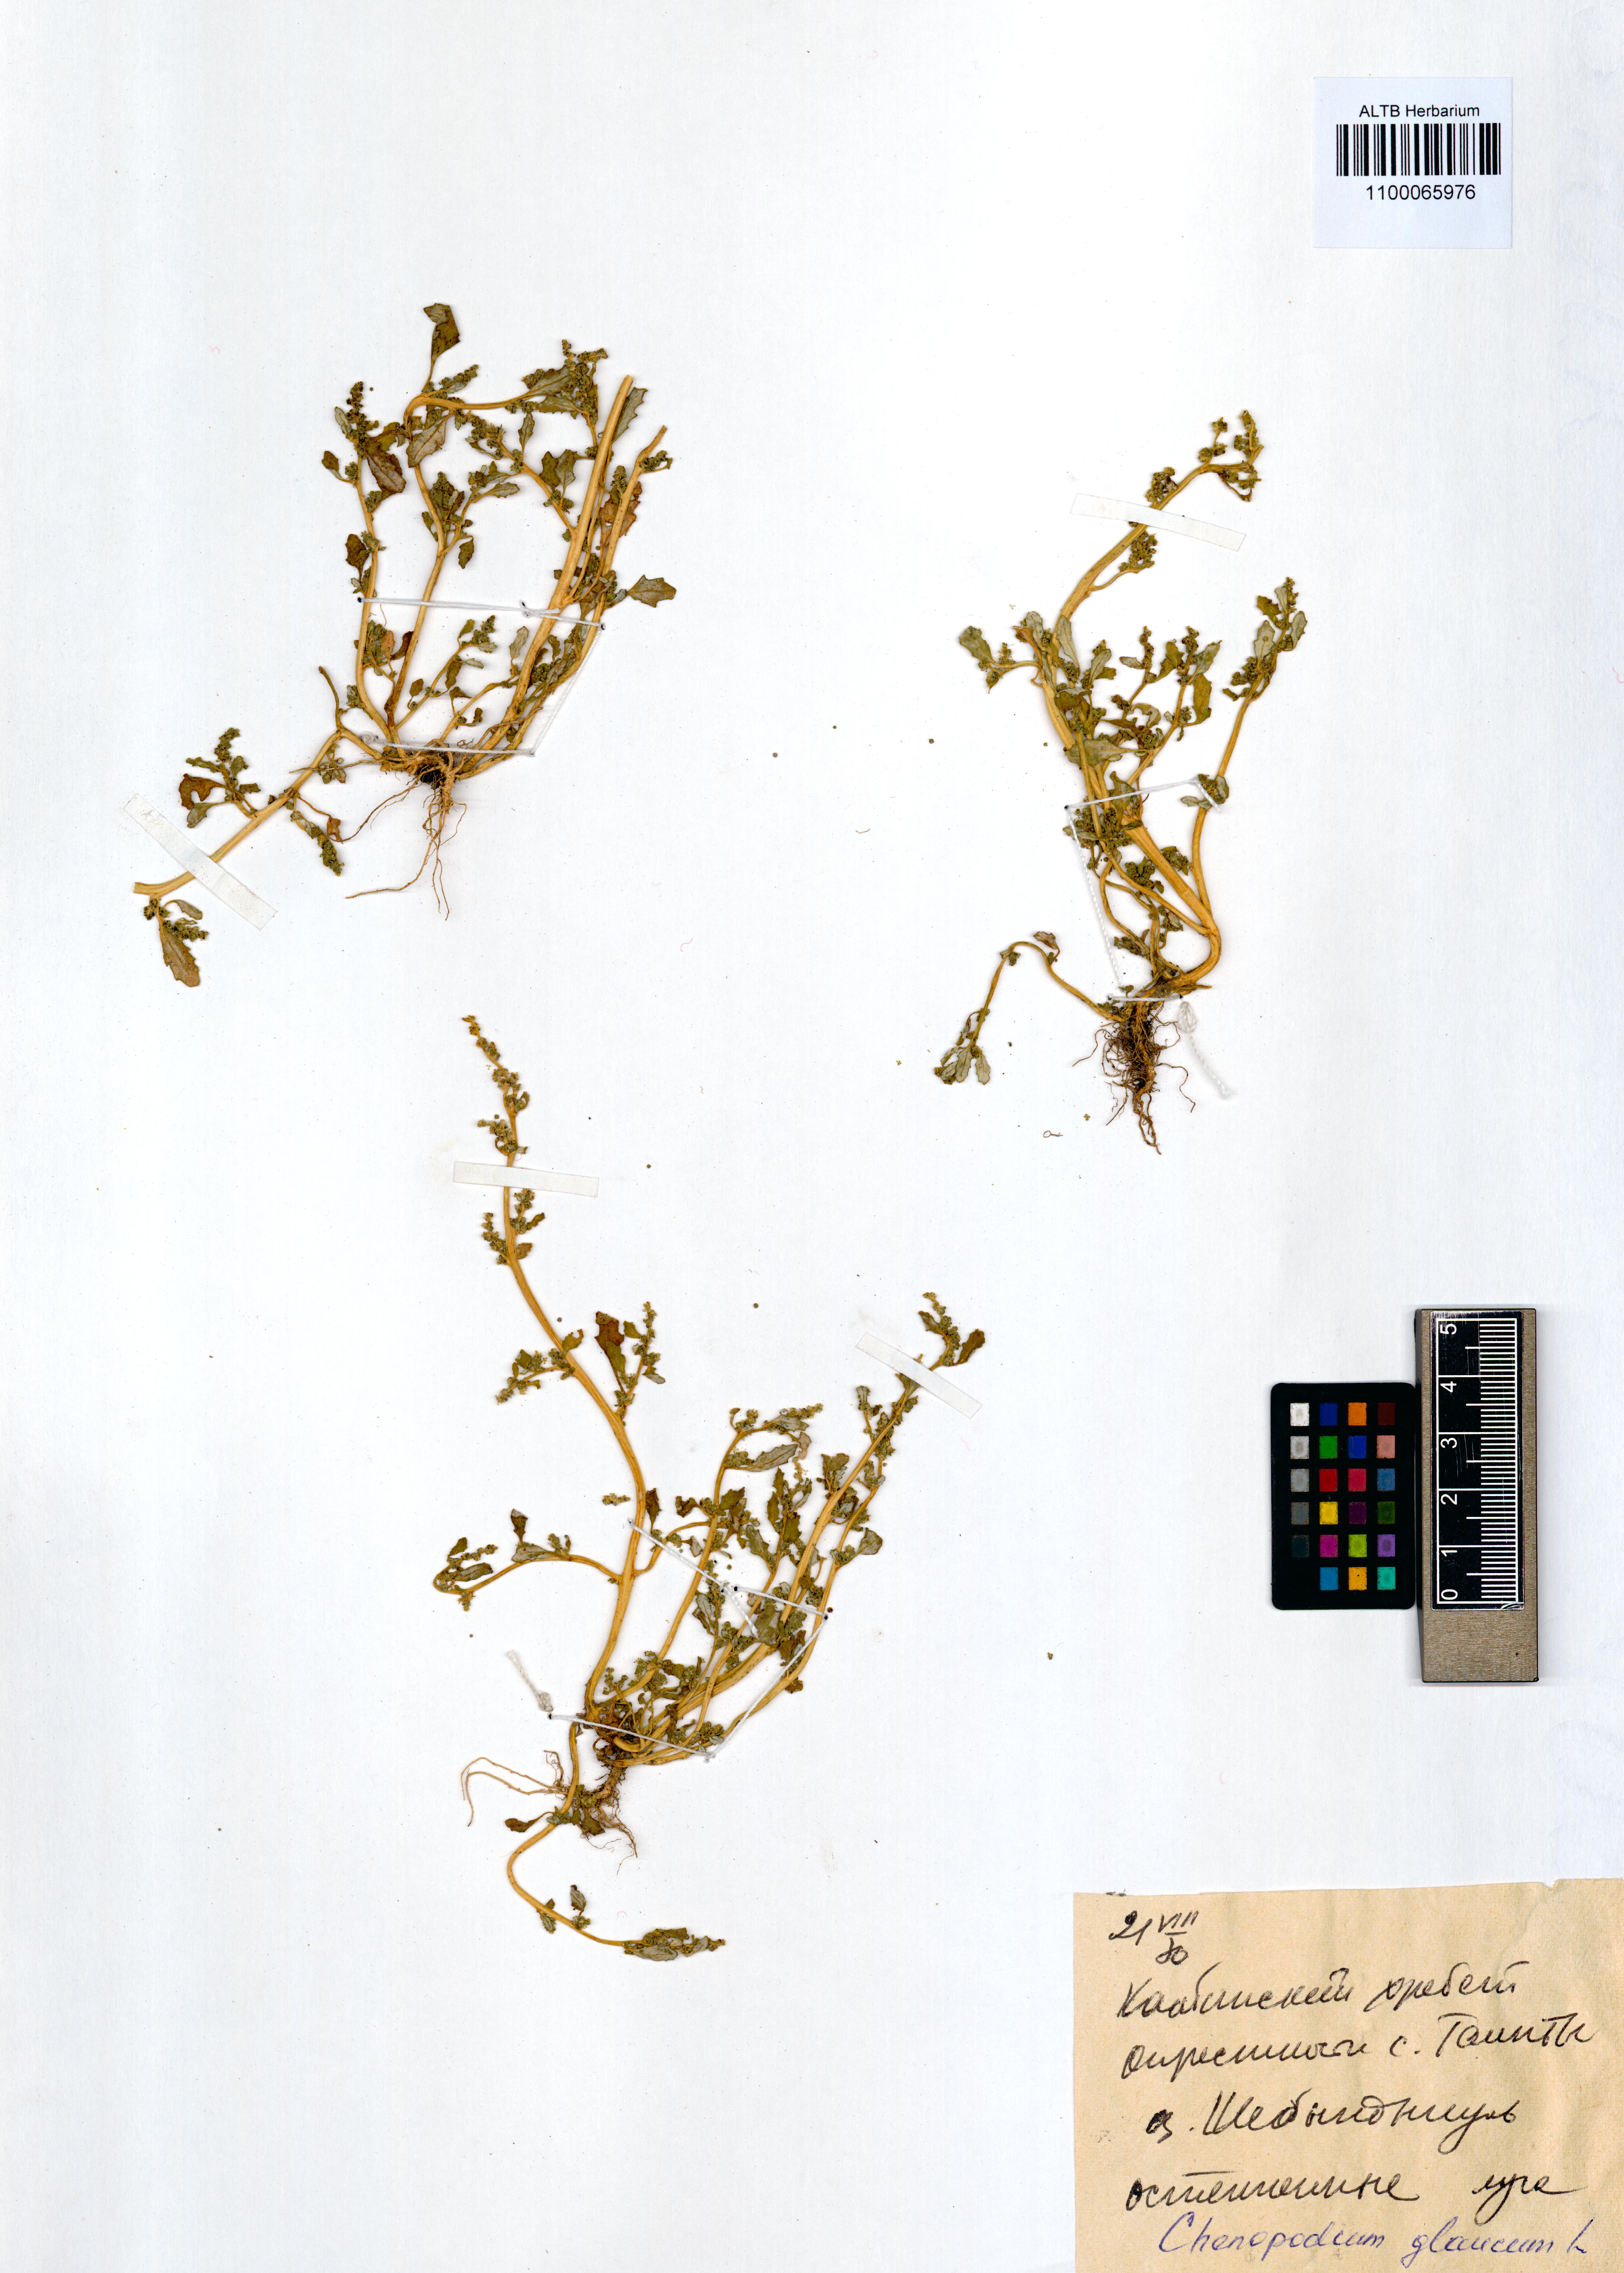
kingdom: Plantae
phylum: Tracheophyta
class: Magnoliopsida
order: Caryophyllales
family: Amaranthaceae
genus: Oxybasis
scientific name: Oxybasis glauca
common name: Glaucous goosefoot
